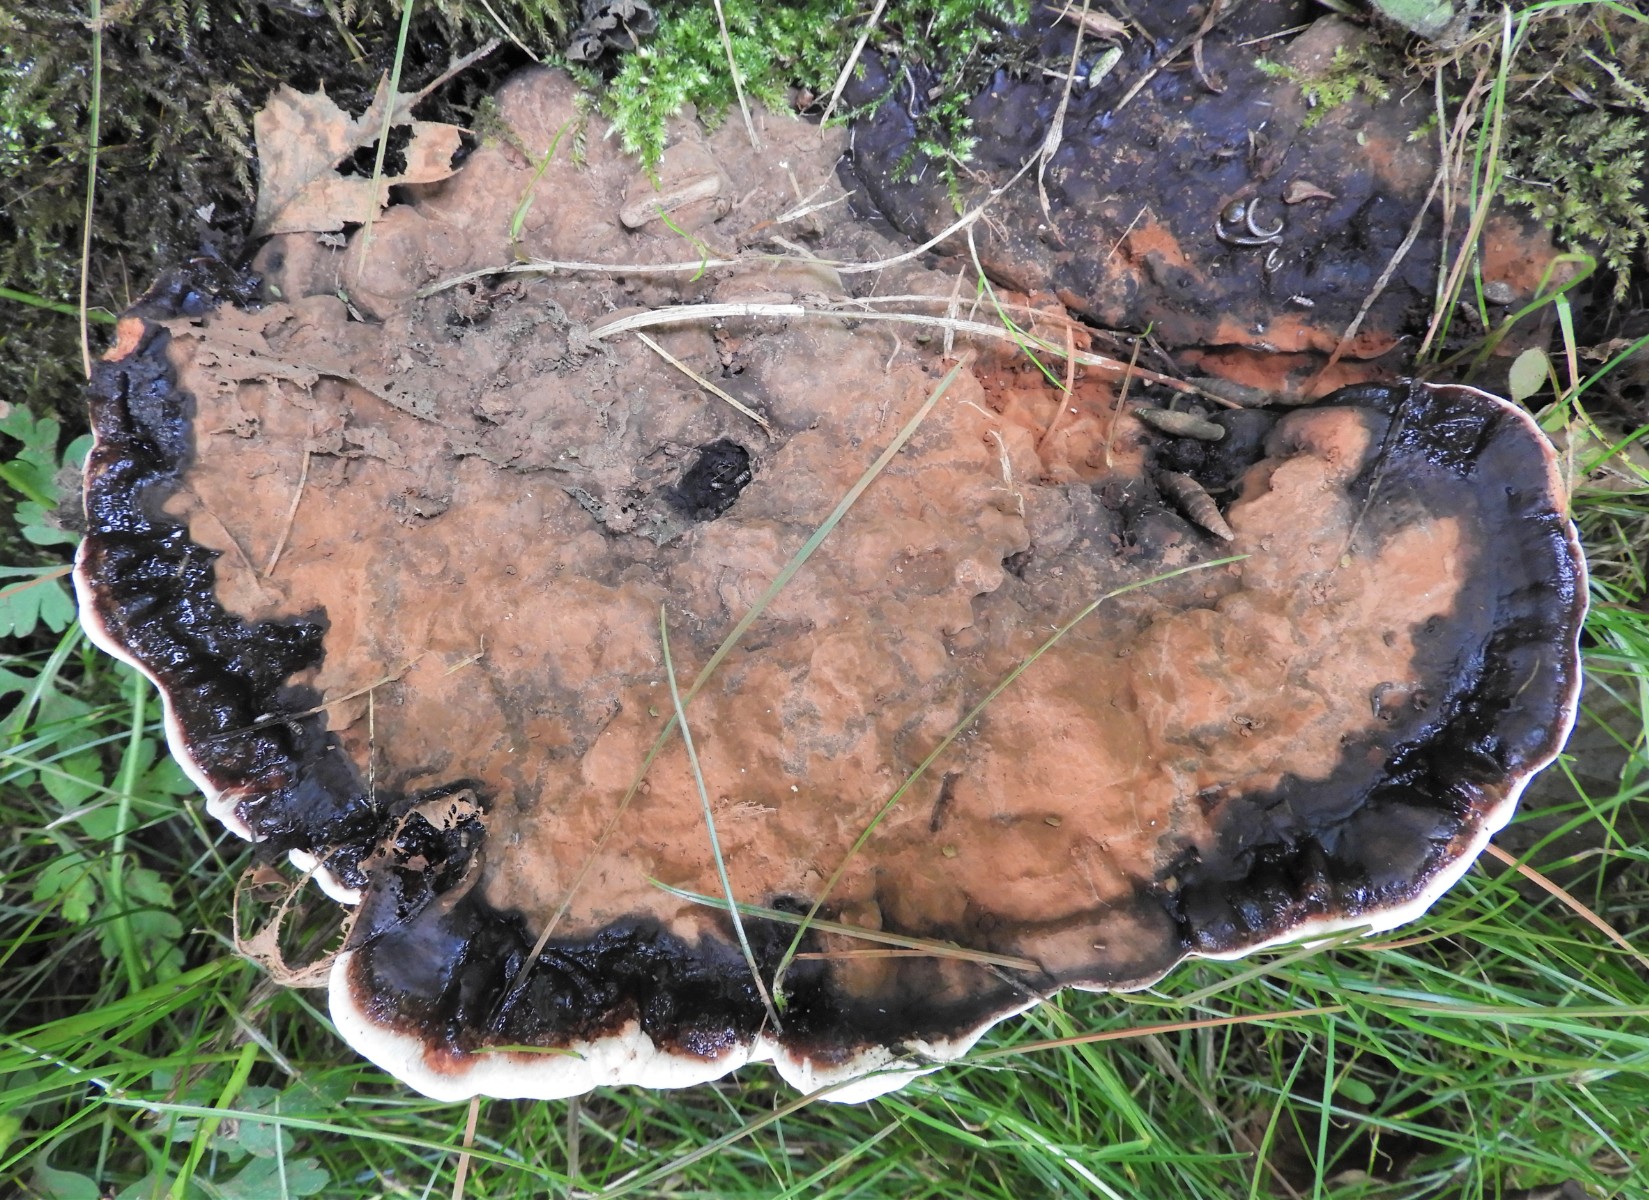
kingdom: Fungi
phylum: Basidiomycota
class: Agaricomycetes
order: Polyporales
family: Polyporaceae
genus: Ganoderma
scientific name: Ganoderma applanatum
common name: flad lakporesvamp
